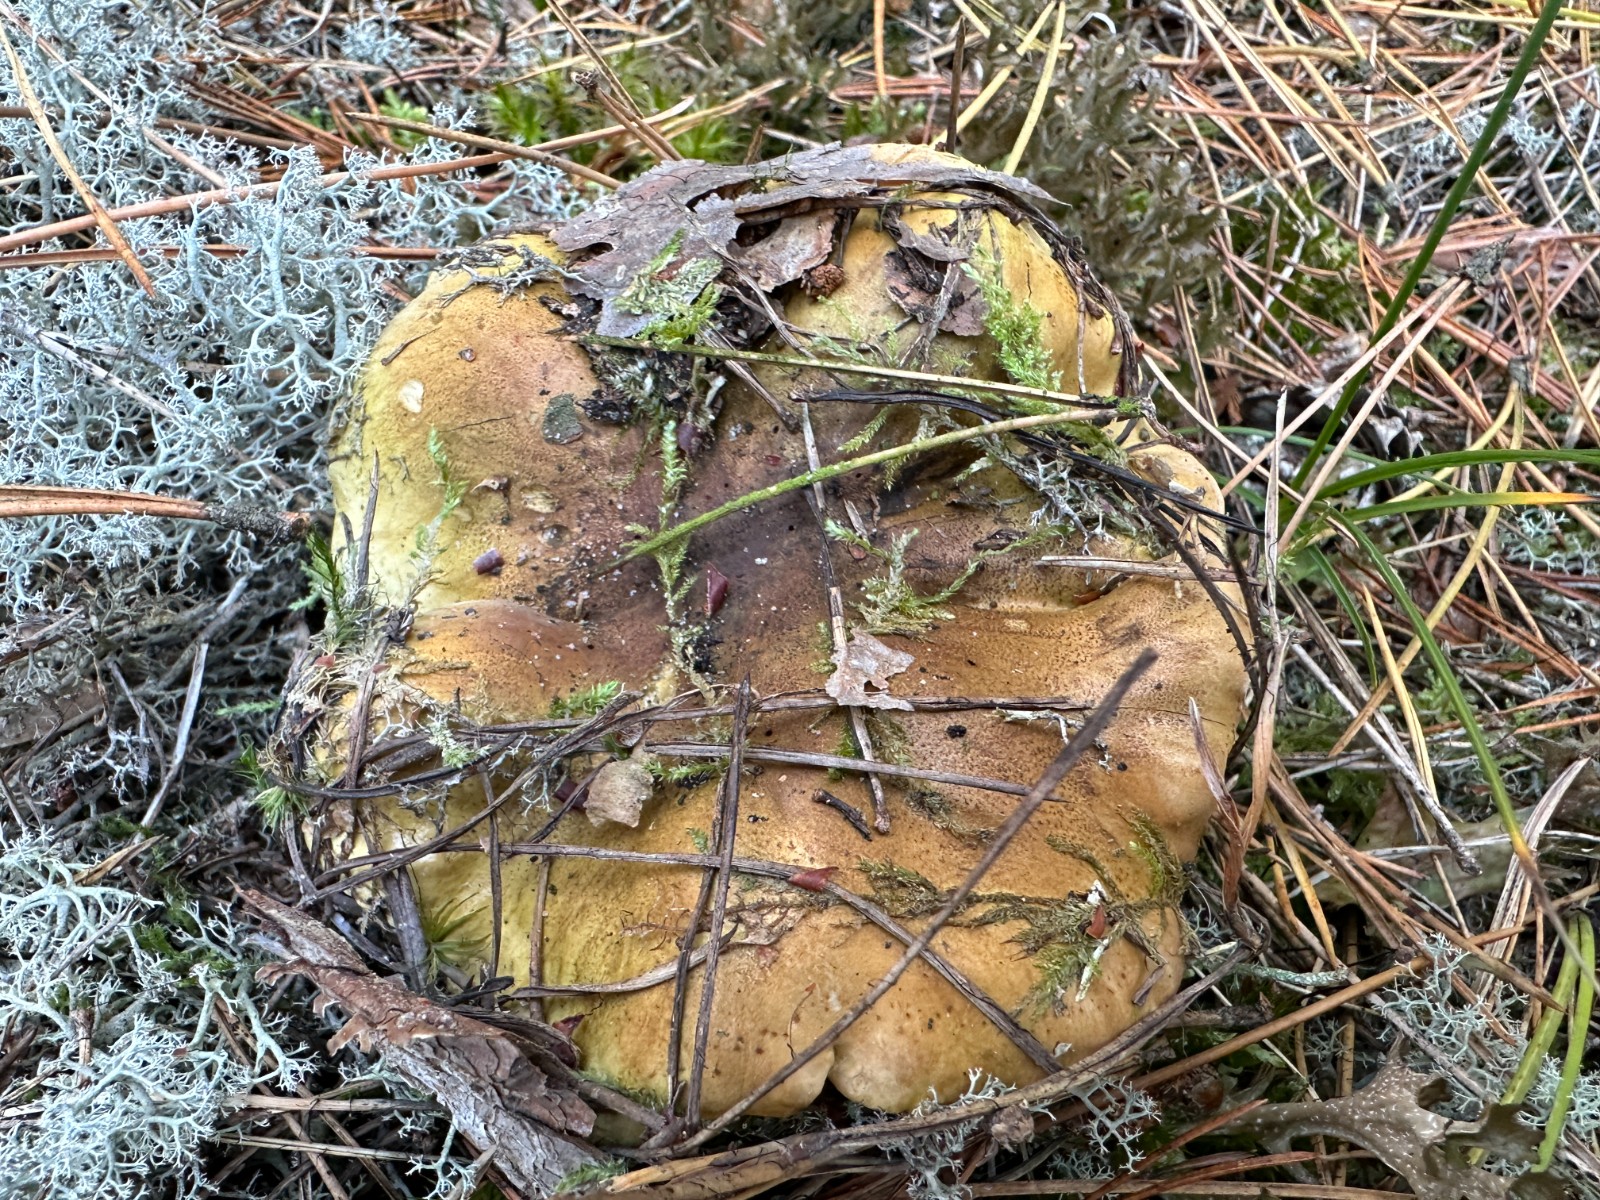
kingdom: Fungi
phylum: Basidiomycota
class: Agaricomycetes
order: Agaricales
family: Tricholomataceae
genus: Tricholoma
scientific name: Tricholoma equestre
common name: ægte ridderhat
